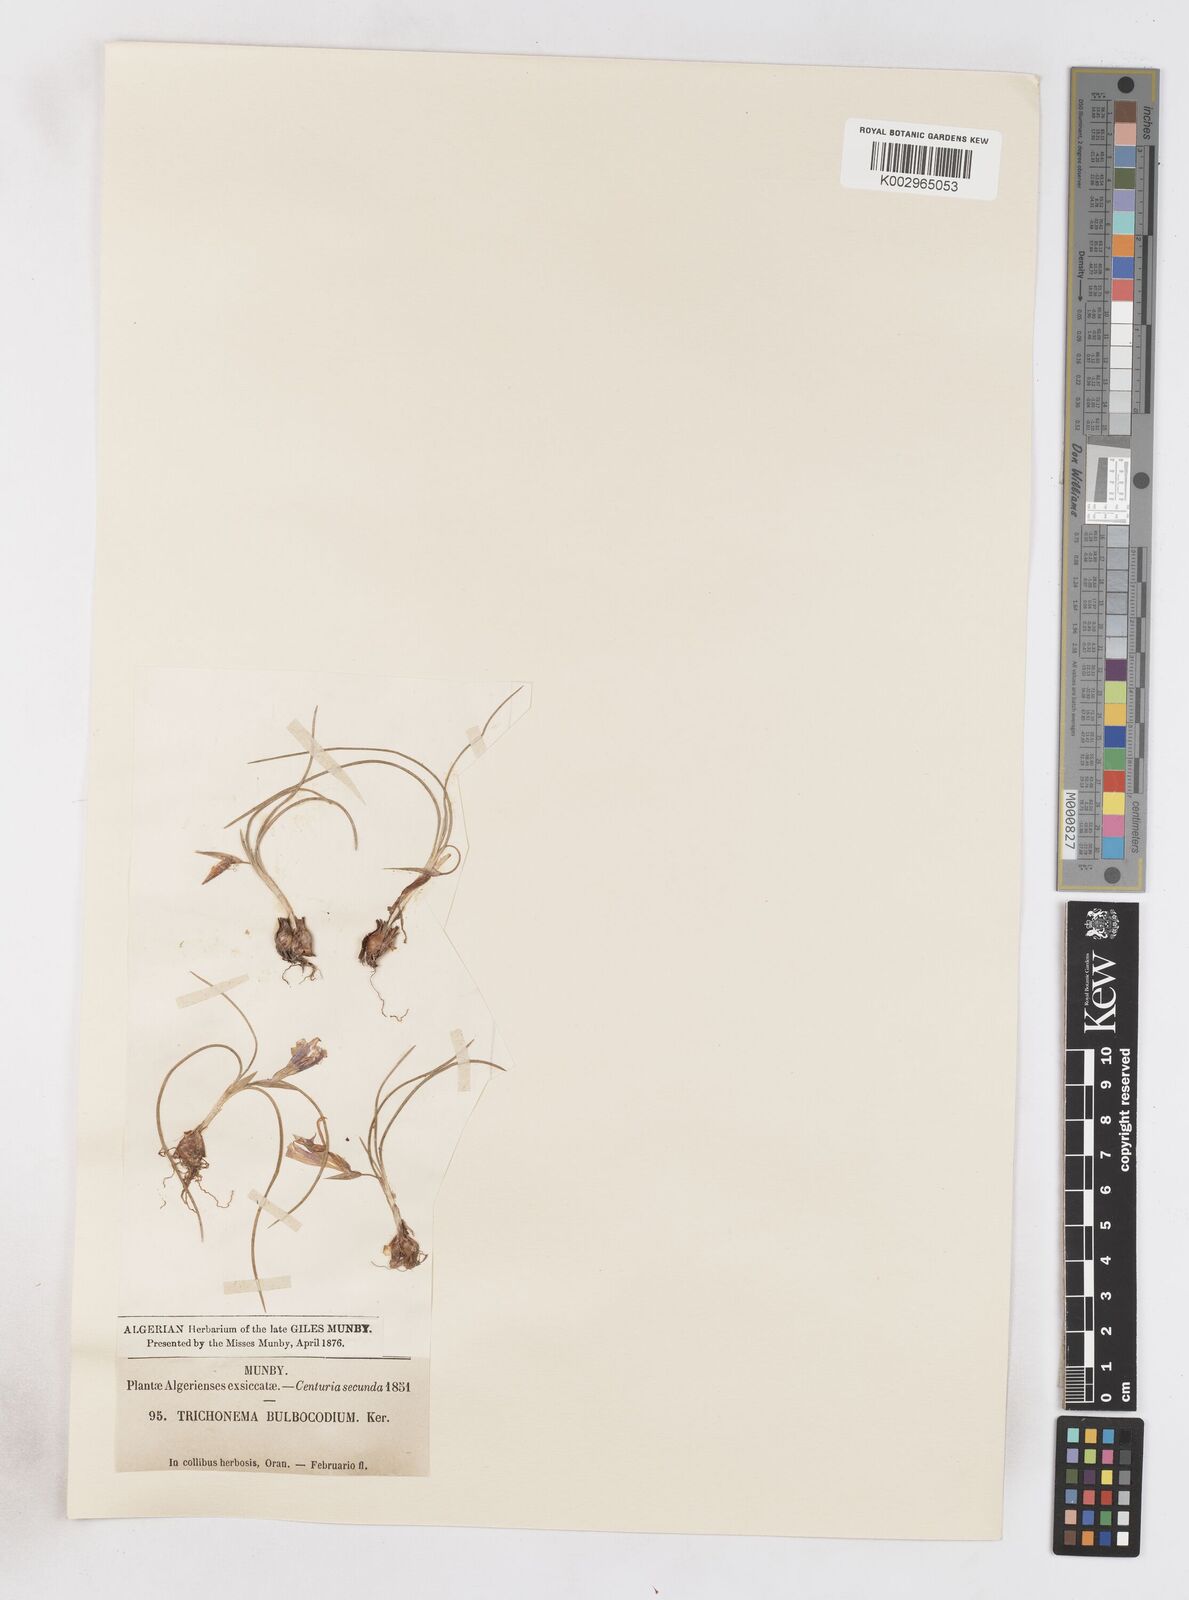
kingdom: Plantae
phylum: Tracheophyta
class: Liliopsida
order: Asparagales
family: Iridaceae
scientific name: Iridaceae
